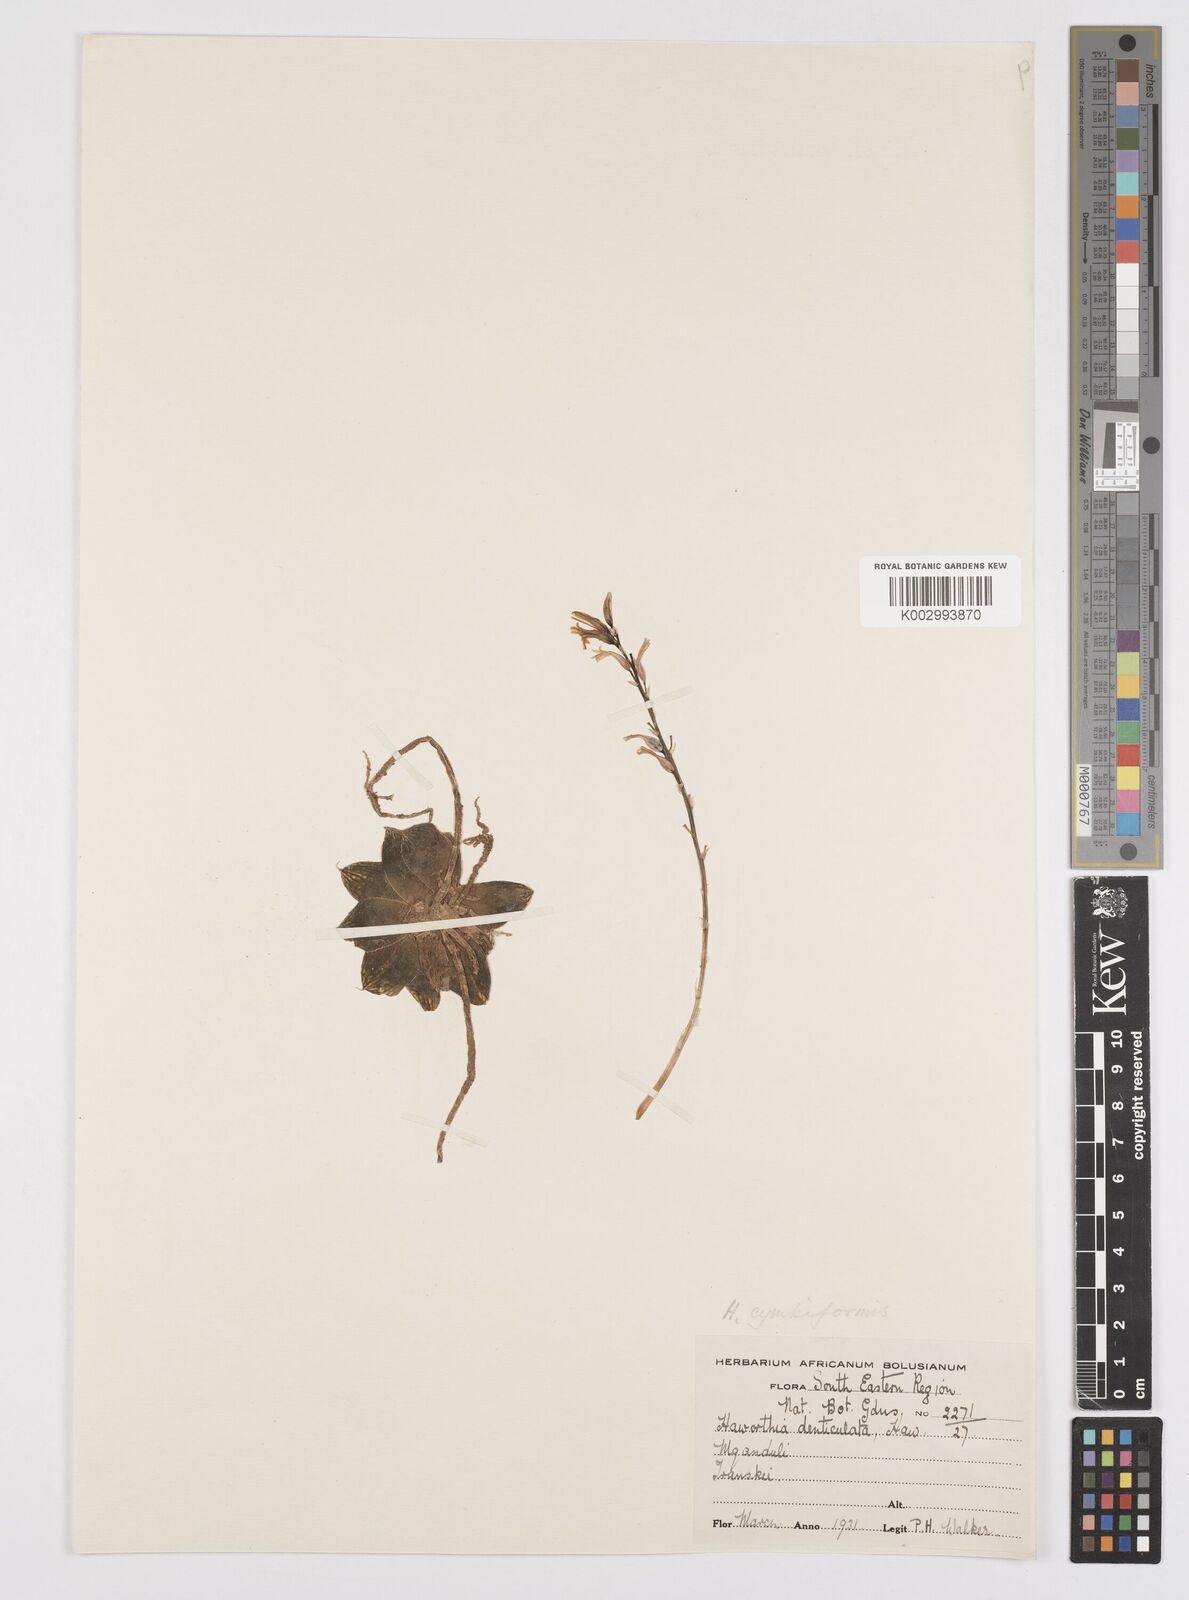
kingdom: Plantae
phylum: Tracheophyta
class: Liliopsida
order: Asparagales
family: Asphodelaceae
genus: Haworthia
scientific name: Haworthia cymbiformis
